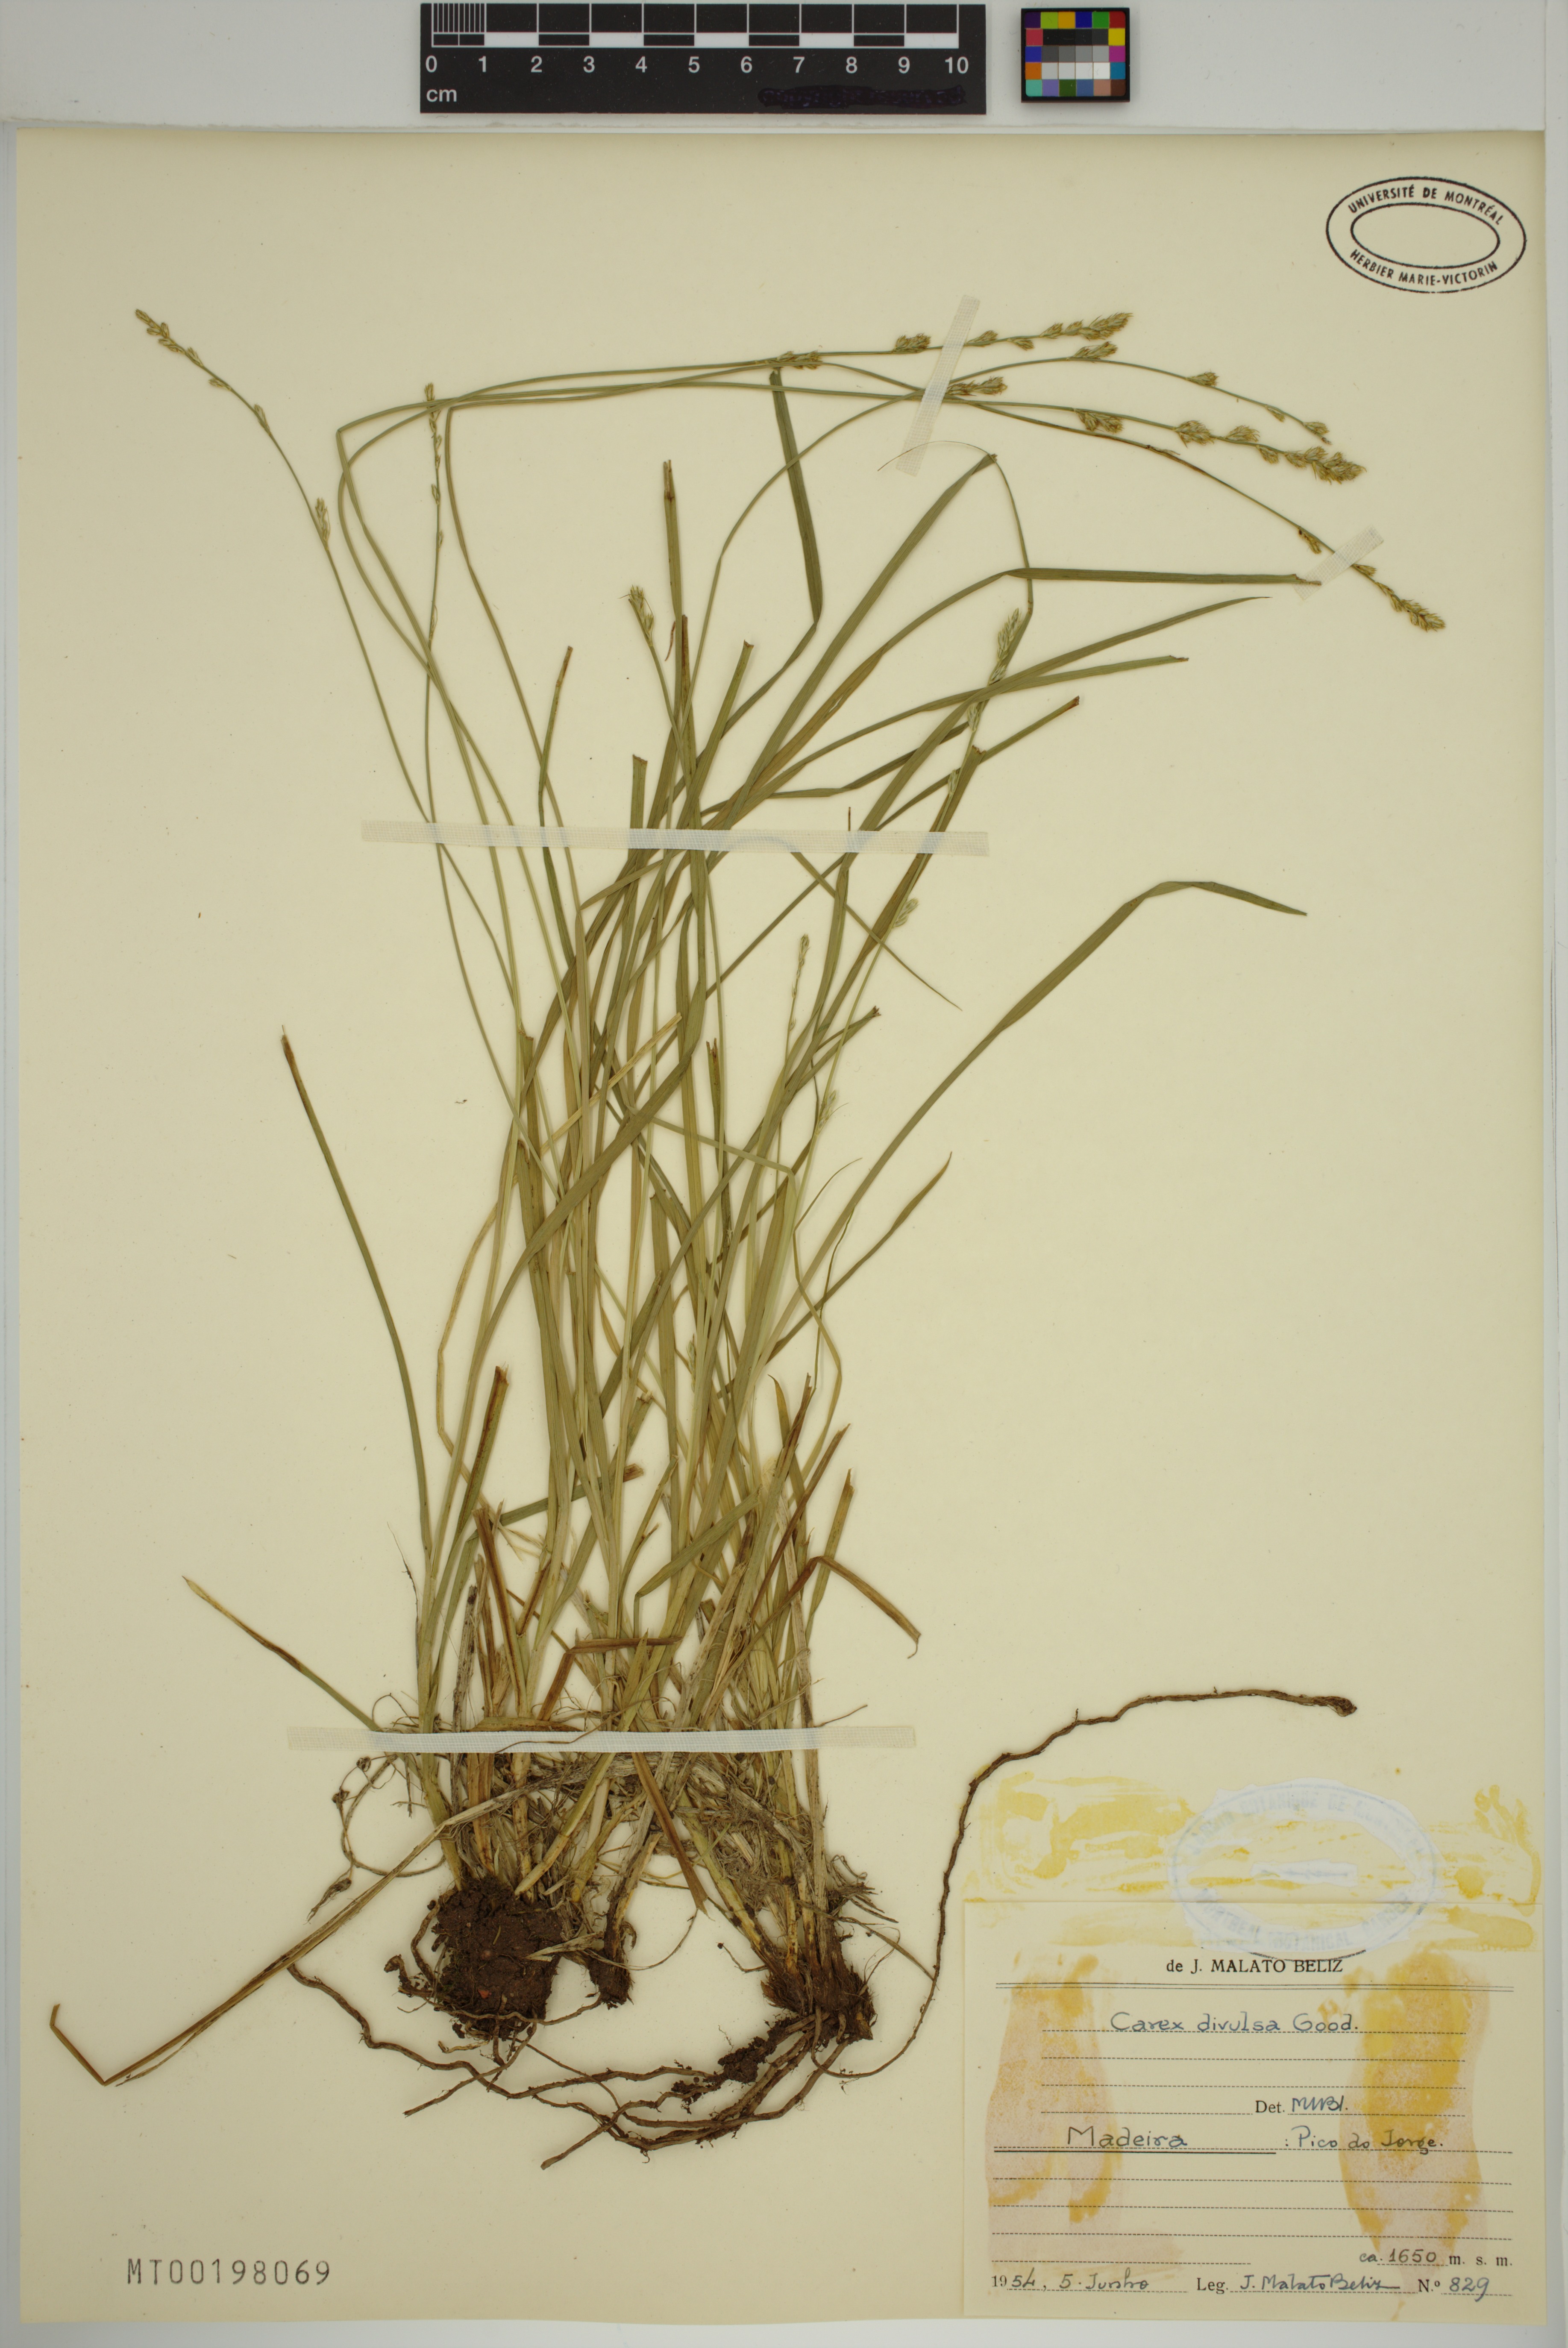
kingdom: Plantae
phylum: Tracheophyta
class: Liliopsida
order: Poales
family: Cyperaceae
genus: Carex
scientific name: Carex divulsa
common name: Grassland sedge
